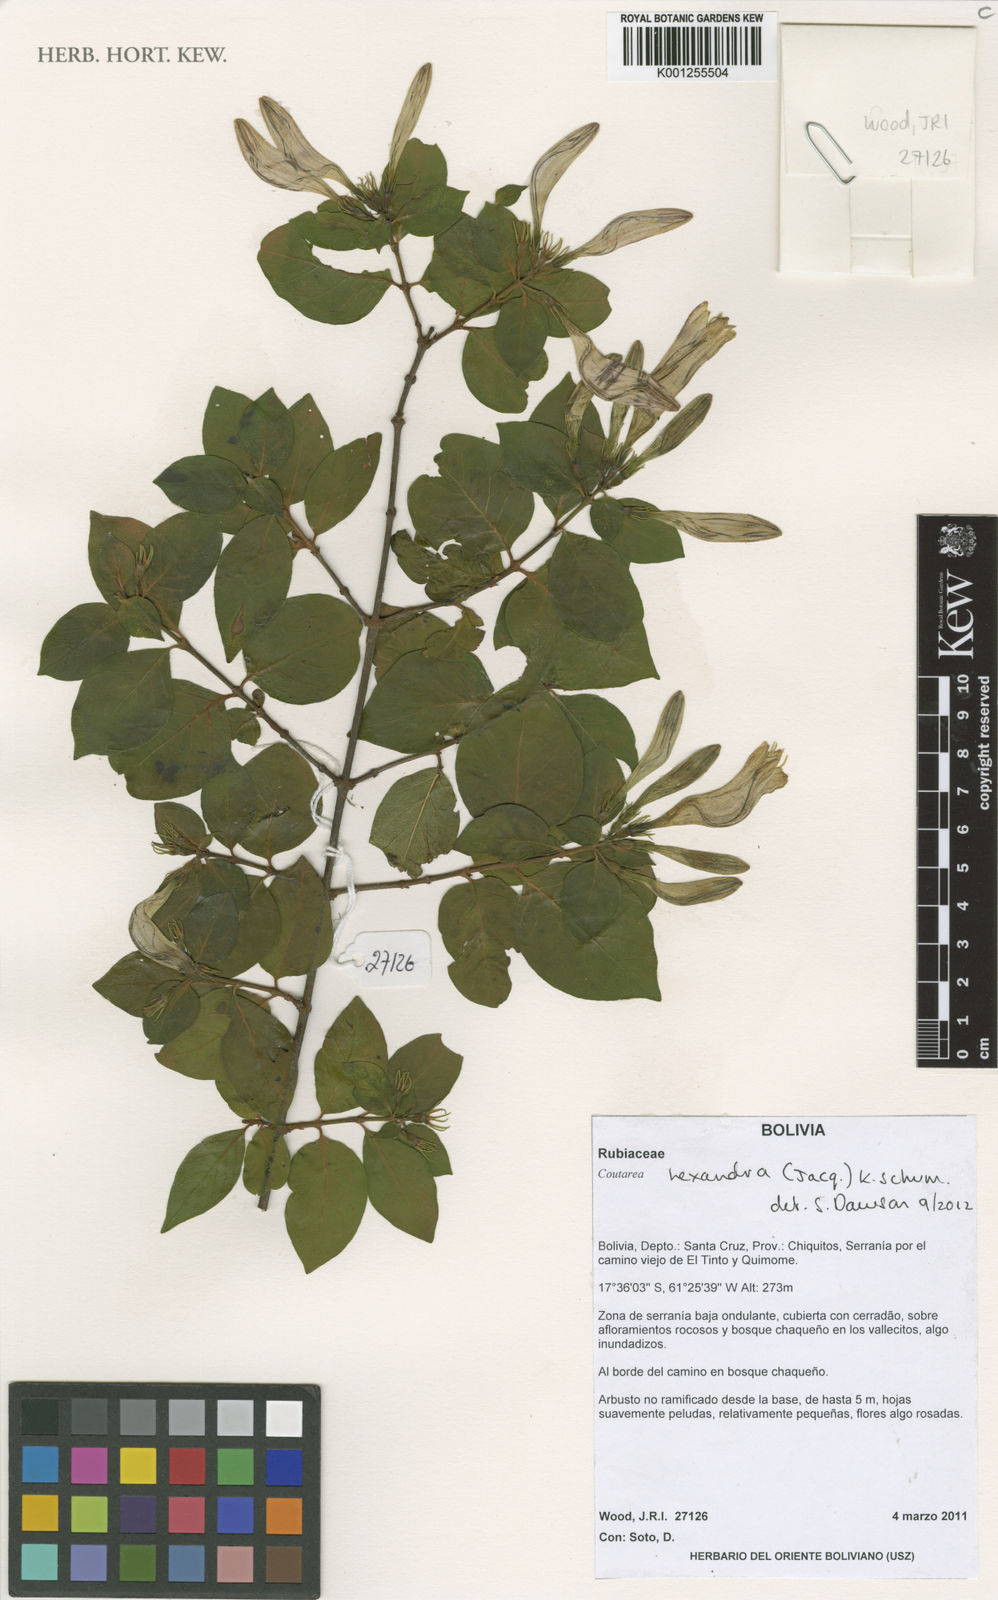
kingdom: Plantae
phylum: Tracheophyta
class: Magnoliopsida
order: Gentianales
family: Rubiaceae
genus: Coutarea
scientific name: Coutarea hexandra
